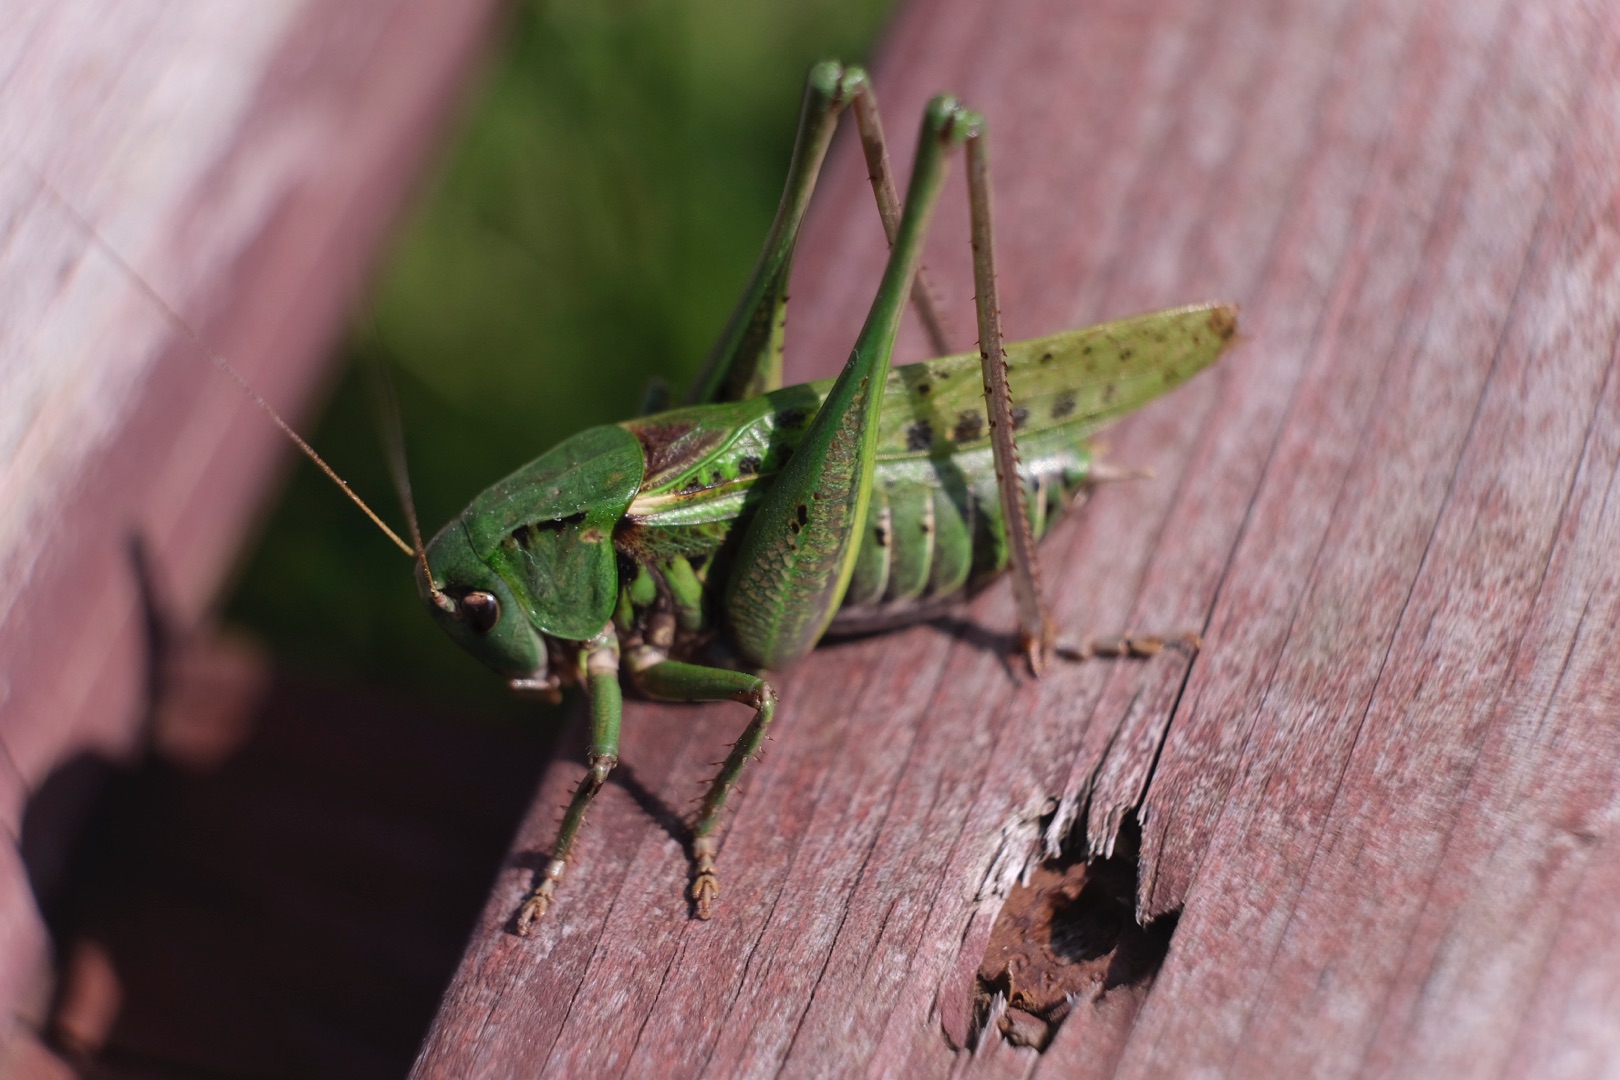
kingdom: Animalia
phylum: Arthropoda
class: Insecta
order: Orthoptera
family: Tettigoniidae
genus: Decticus
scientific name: Decticus verrucivorus
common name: Vortebider
